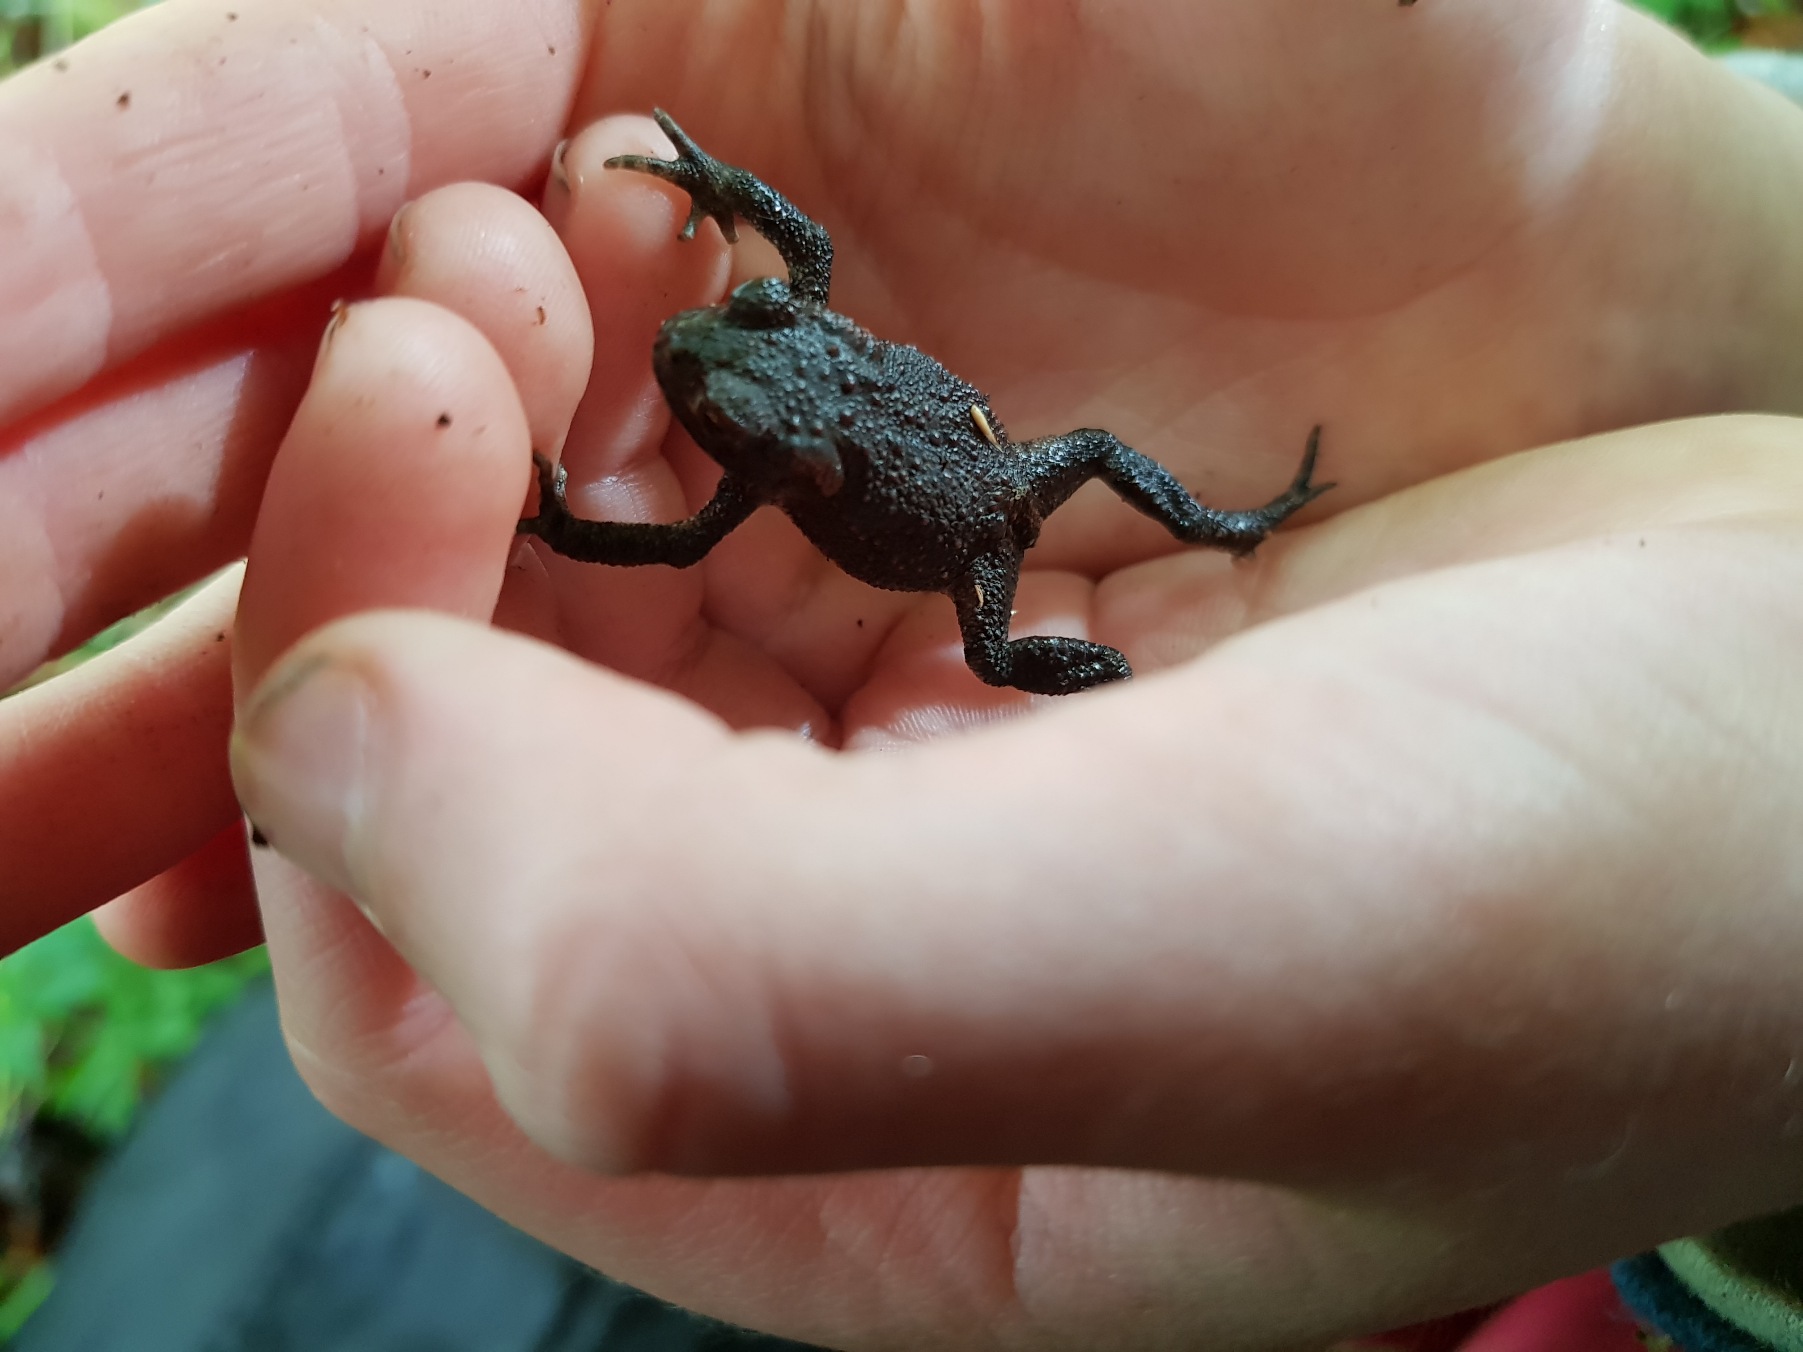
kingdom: Animalia
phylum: Chordata
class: Amphibia
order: Anura
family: Bufonidae
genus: Bufo
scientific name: Bufo bufo
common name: Skrubtudse
